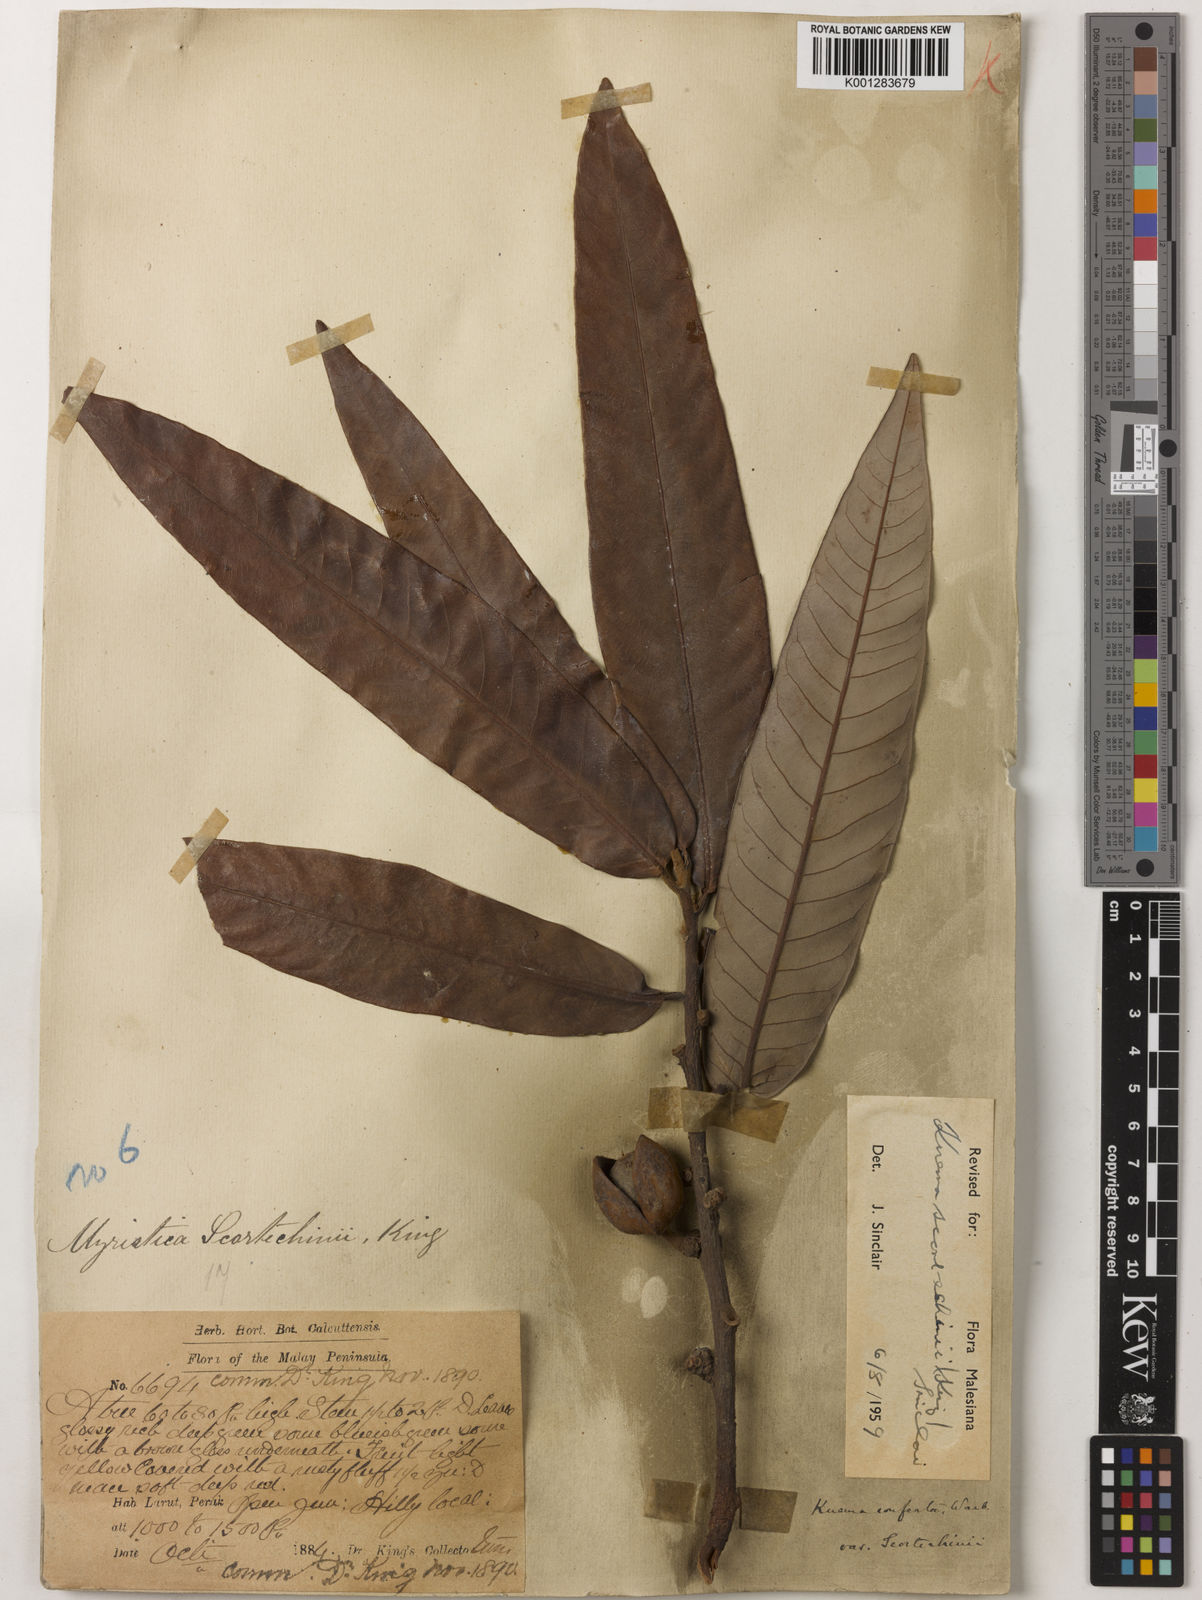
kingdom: Plantae
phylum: Tracheophyta
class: Magnoliopsida
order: Magnoliales
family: Myristicaceae
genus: Knema
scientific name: Knema scortechinii
